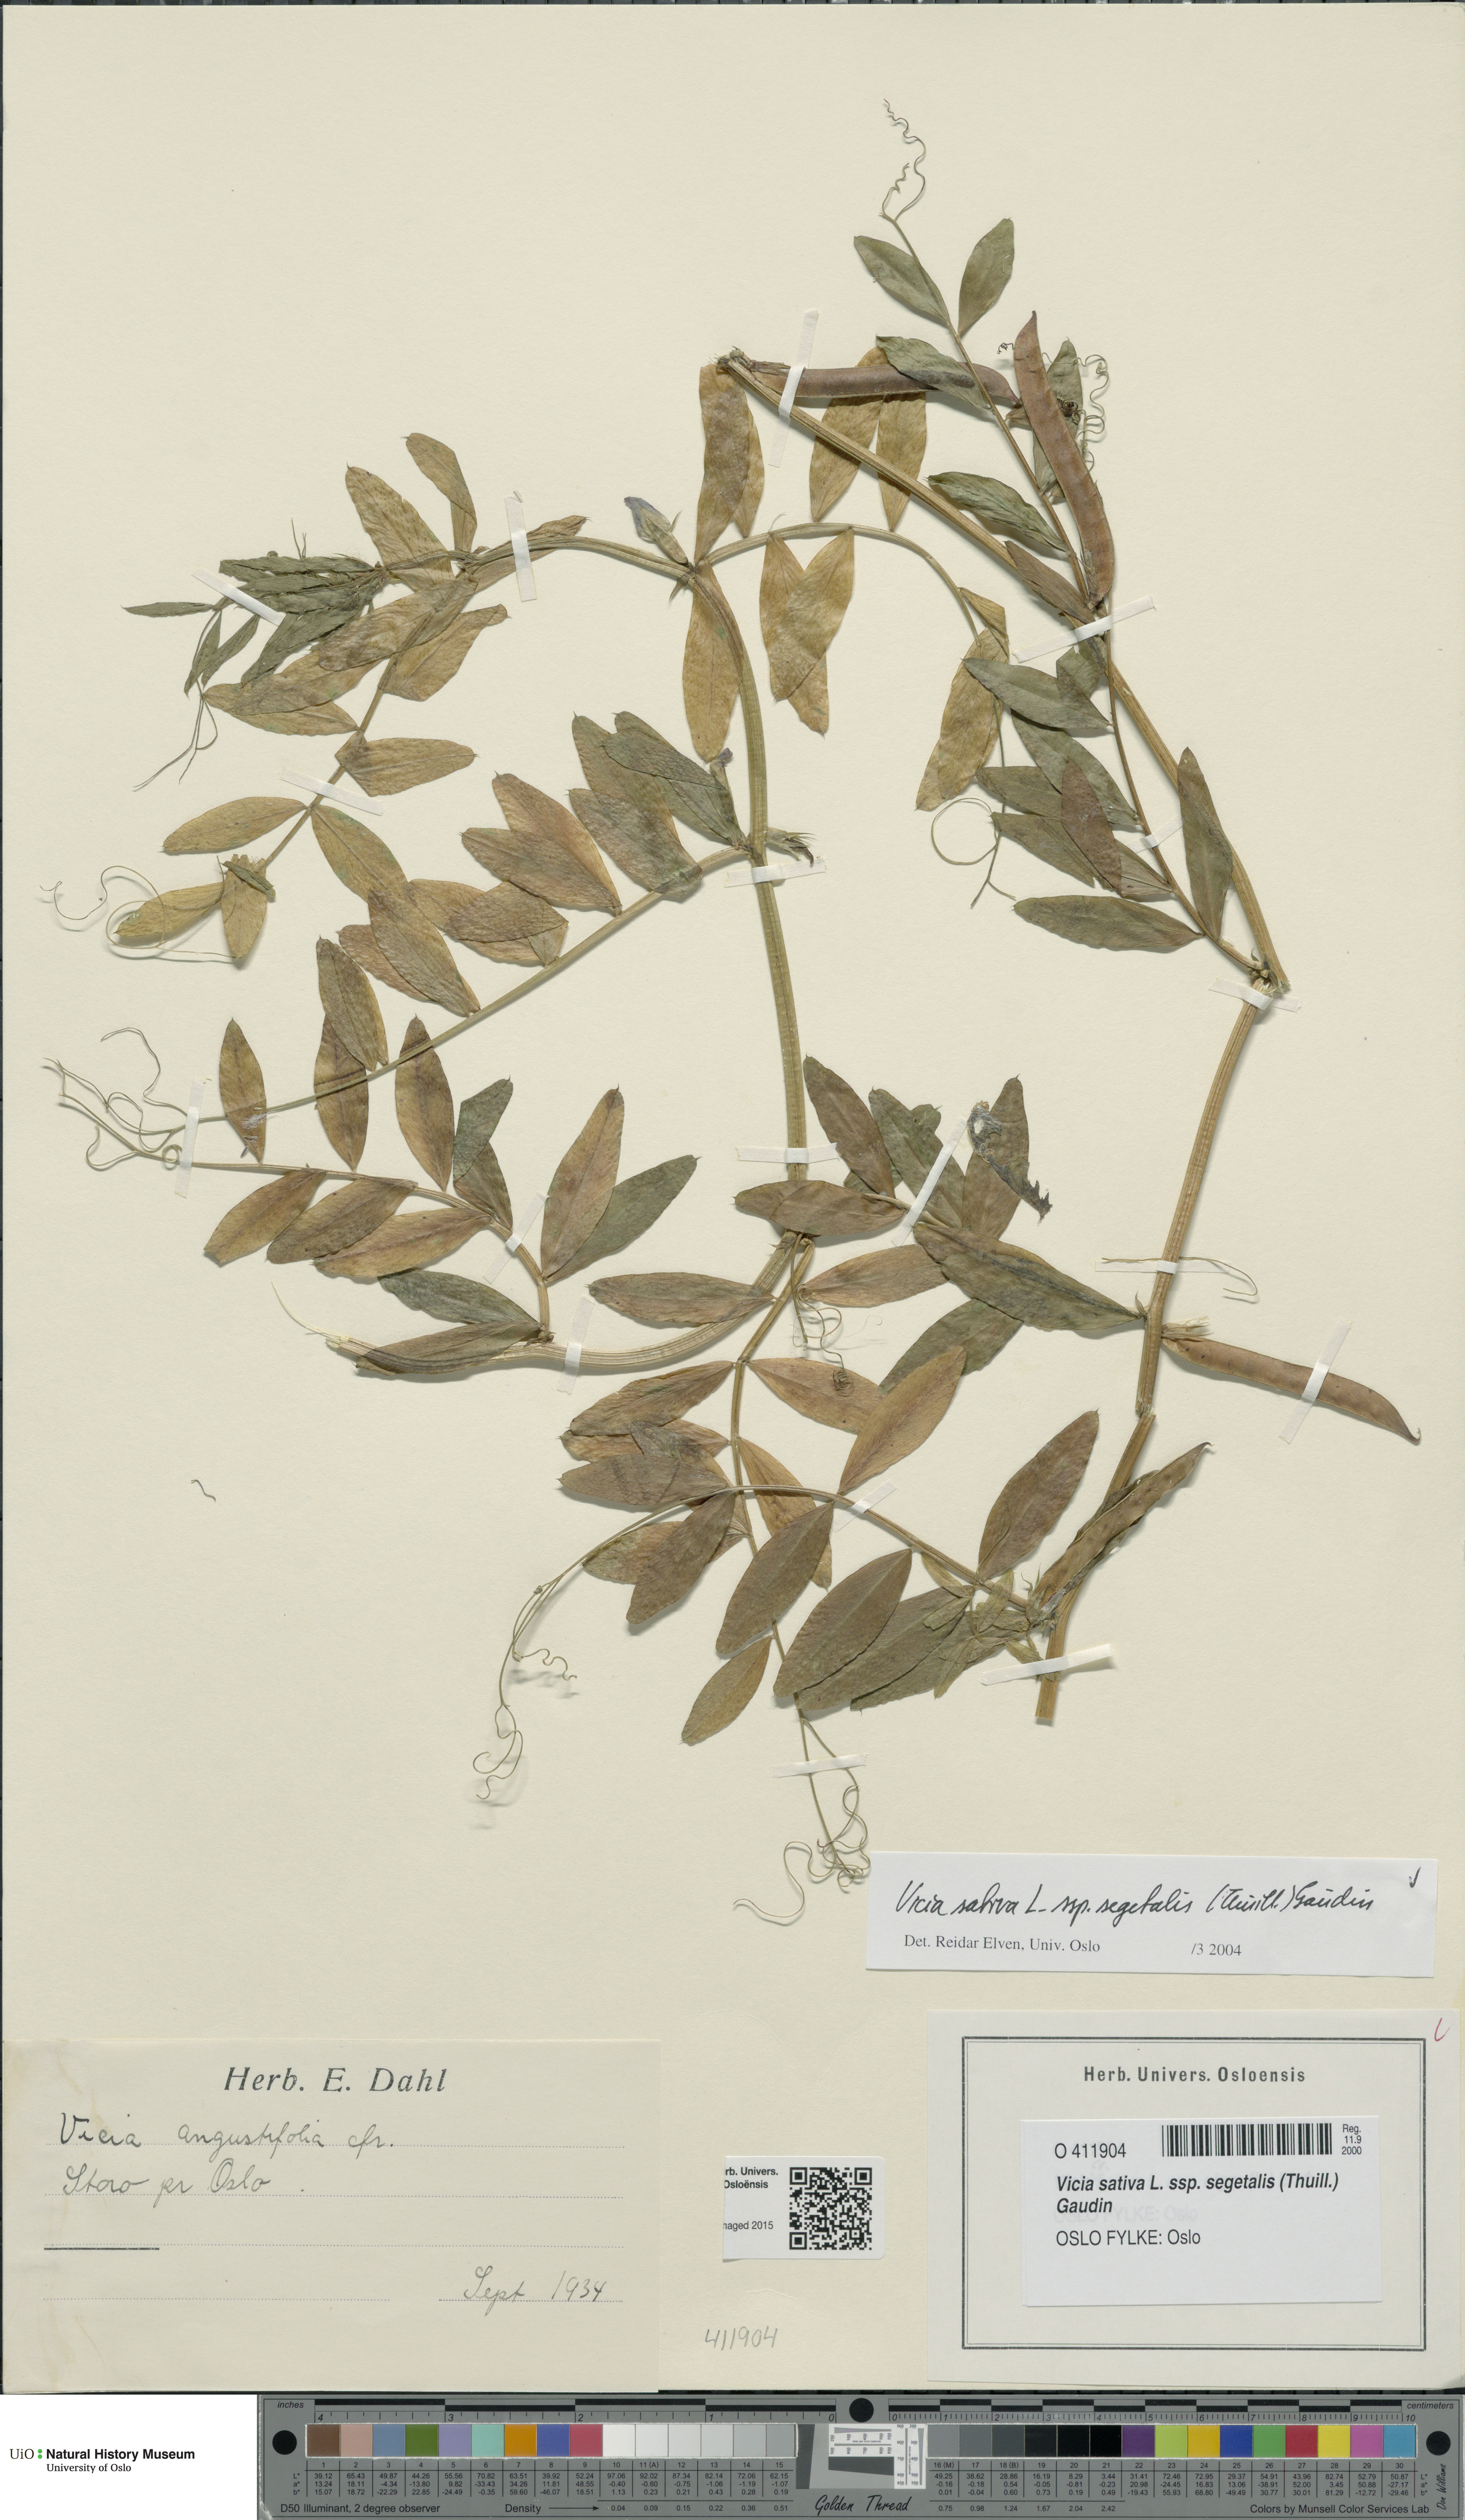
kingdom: Plantae
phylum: Tracheophyta
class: Magnoliopsida
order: Fabales
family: Fabaceae
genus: Vicia
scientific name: Vicia sativa
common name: Garden vetch
